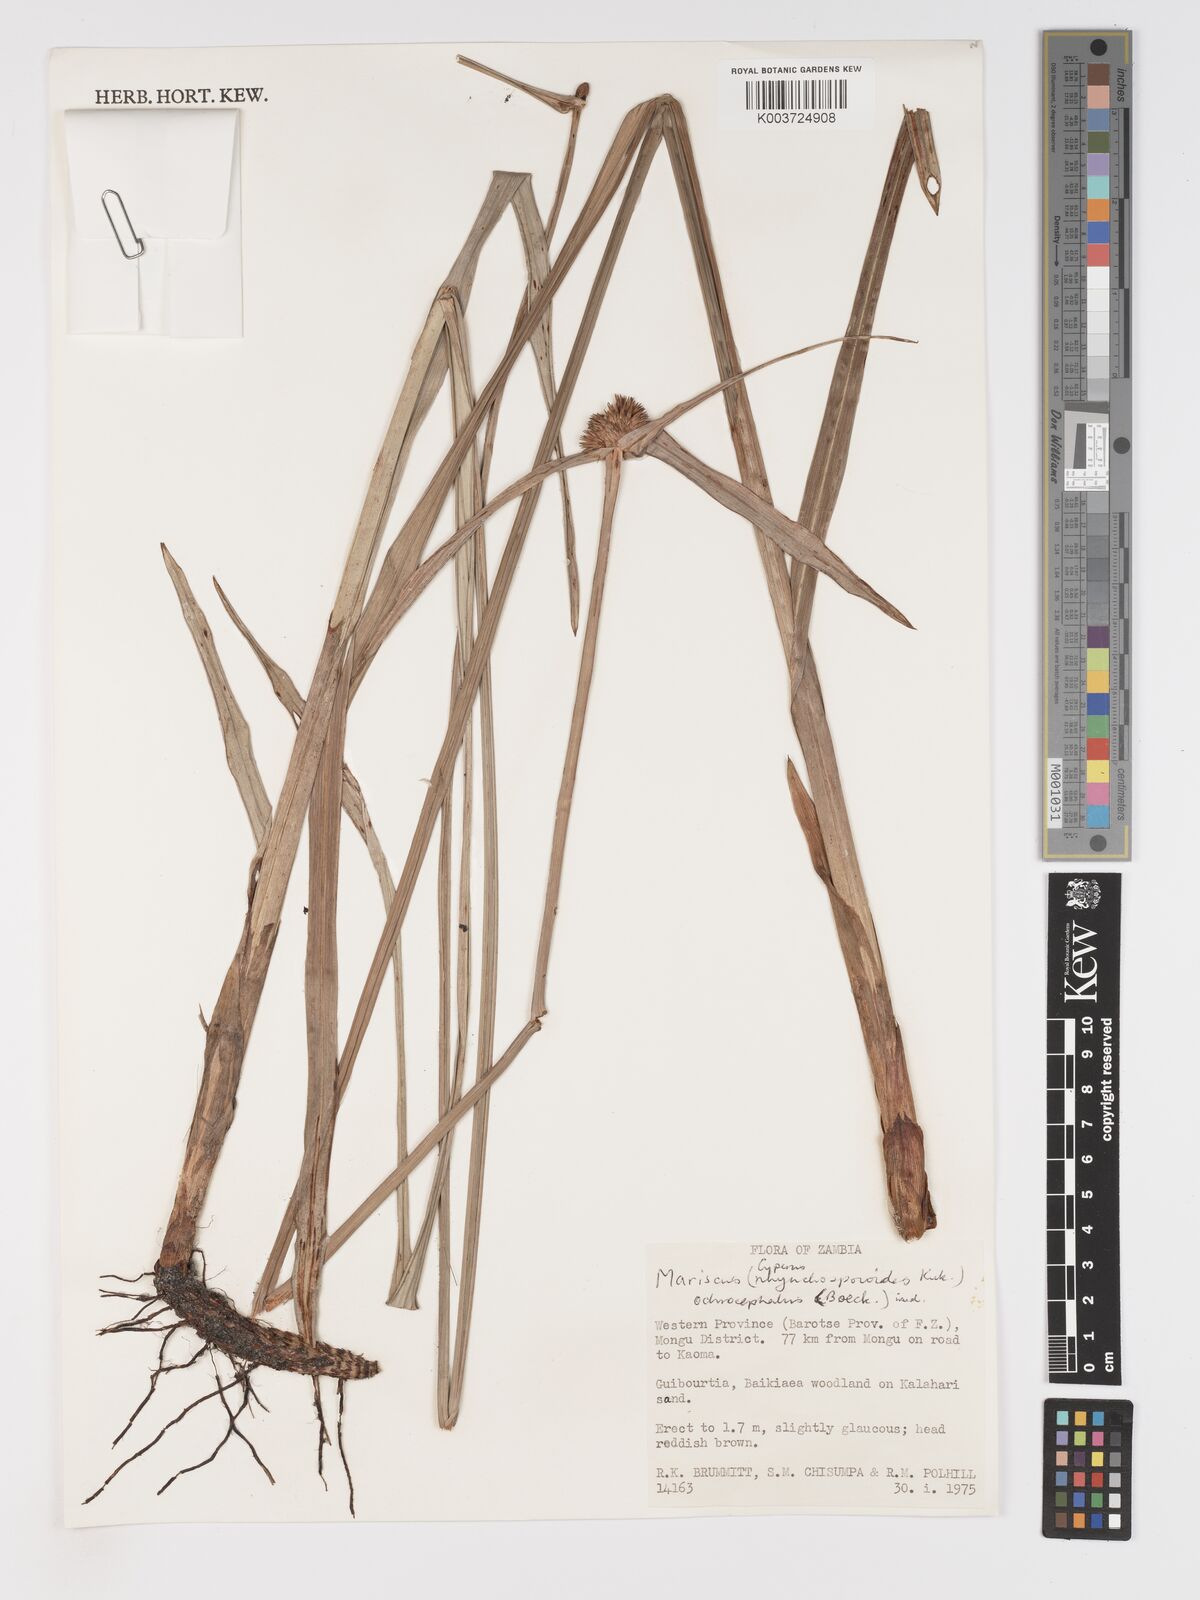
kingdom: Plantae
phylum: Tracheophyta
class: Liliopsida
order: Poales
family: Cyperaceae
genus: Cyperus
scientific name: Cyperus altochrysocephalus
